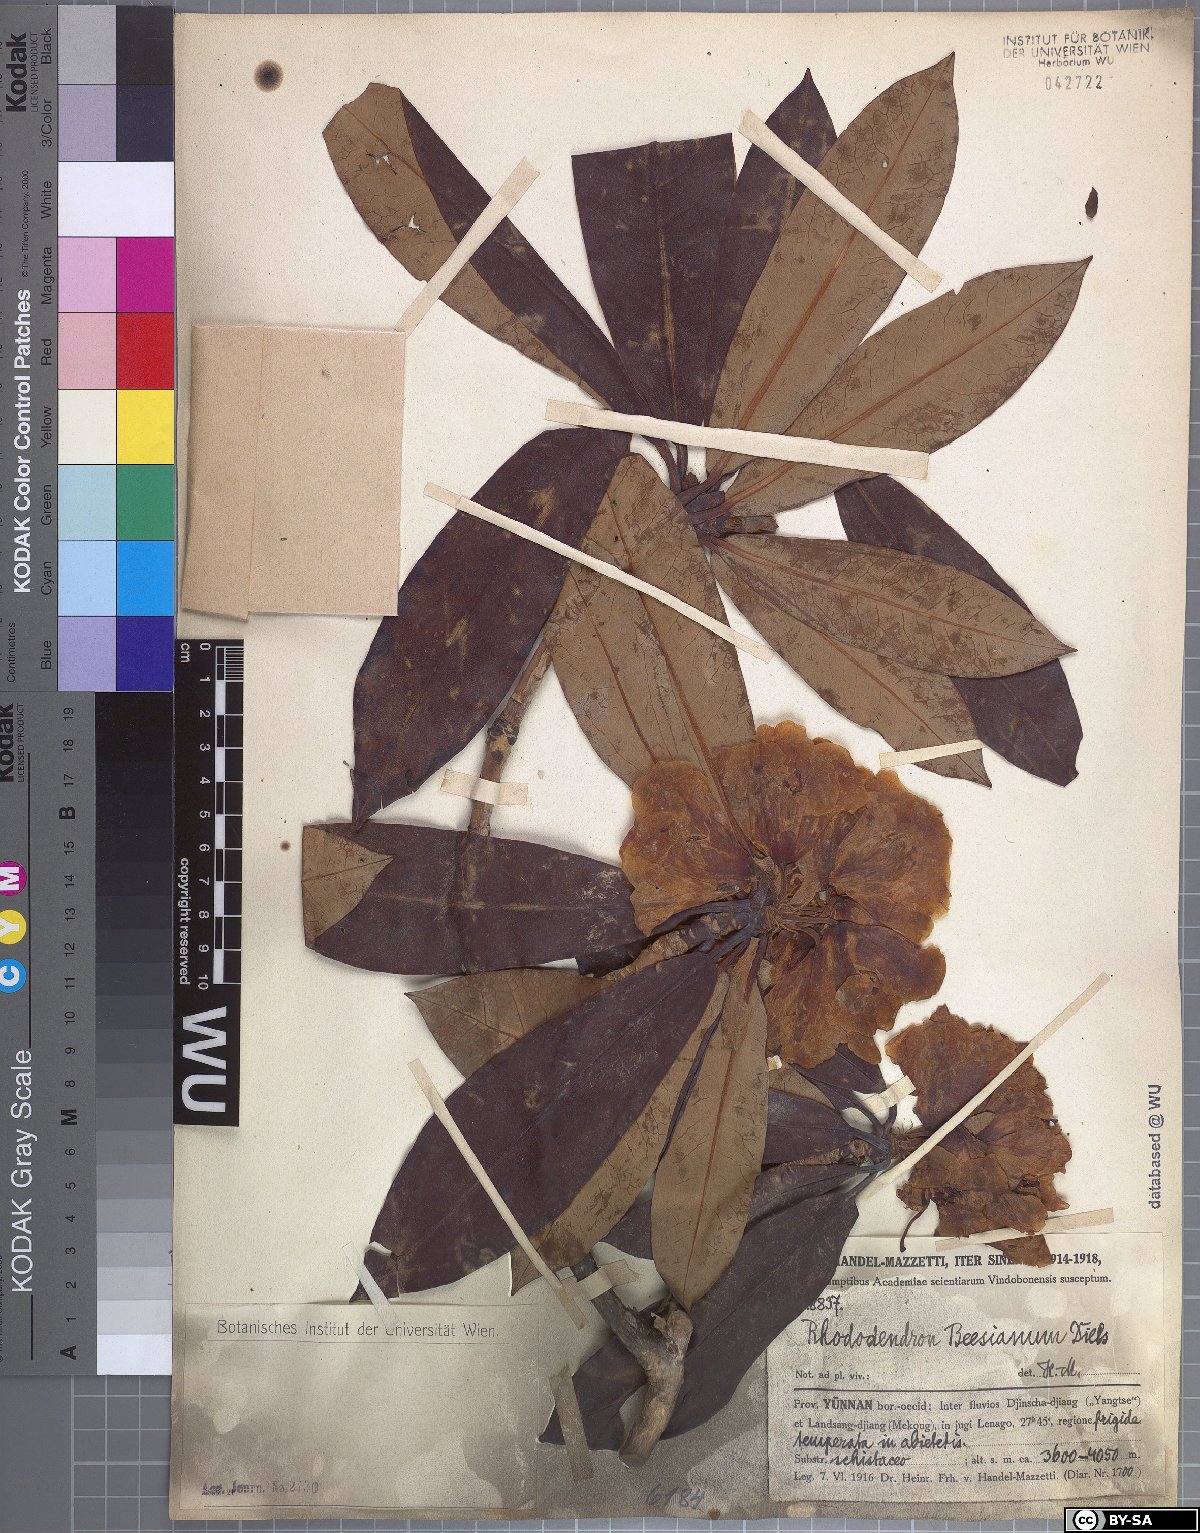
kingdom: Plantae
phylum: Tracheophyta
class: Magnoliopsida
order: Ericales
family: Ericaceae
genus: Rhododendron
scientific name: Rhododendron beesianum
